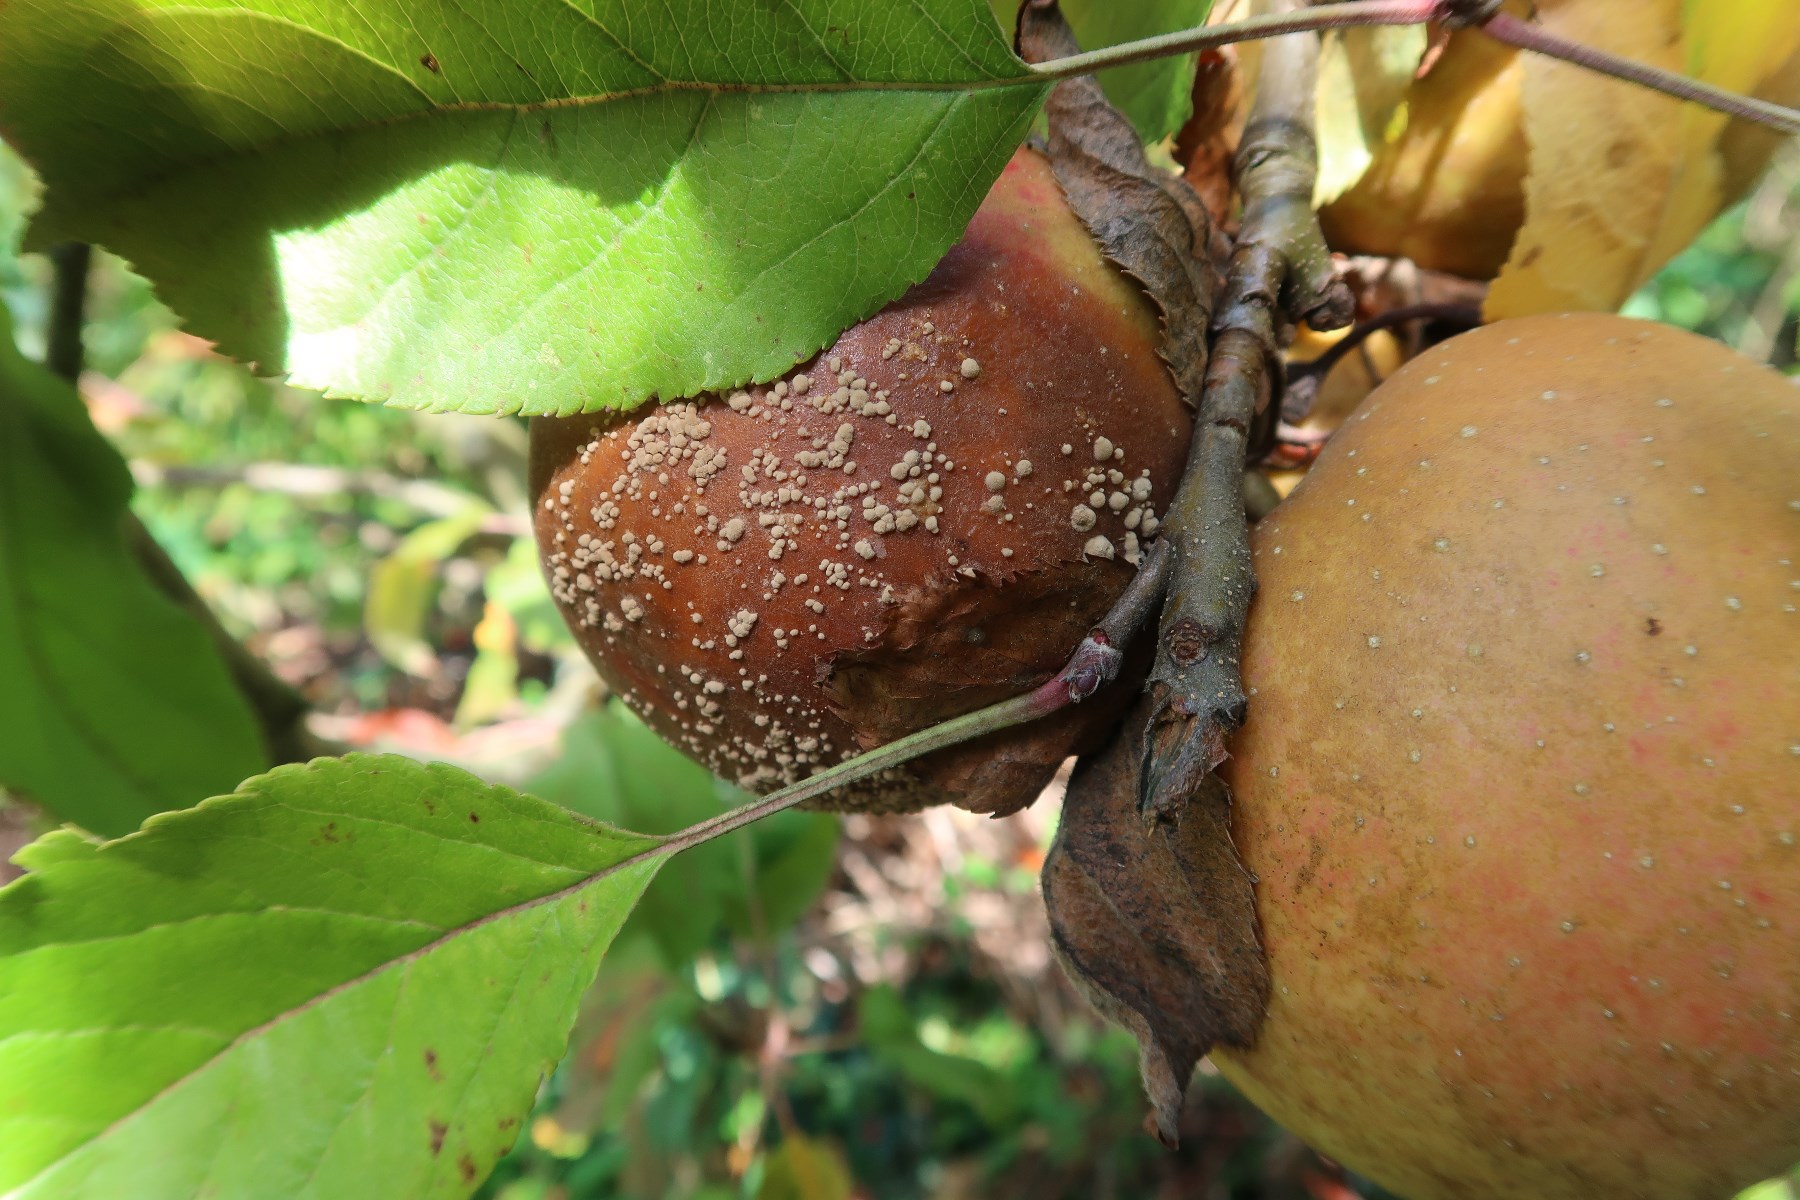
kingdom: Fungi
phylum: Ascomycota
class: Leotiomycetes
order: Helotiales
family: Sclerotiniaceae
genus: Monilinia
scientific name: Monilinia fructigena
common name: æble-knoldskive
